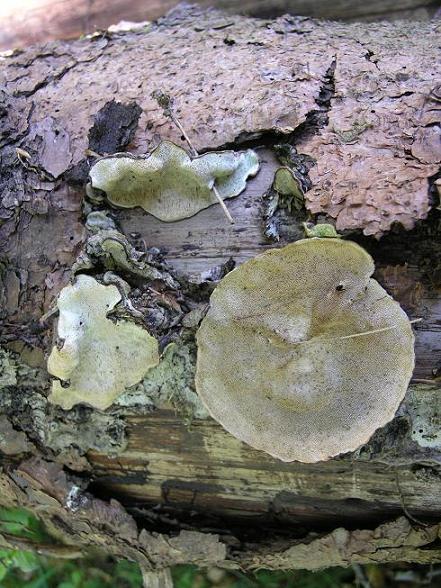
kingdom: Fungi
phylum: Basidiomycota
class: Agaricomycetes
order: Polyporales
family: Fomitopsidaceae
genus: Neoantrodia
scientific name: Neoantrodia serialis
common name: række-sejporesvamp
